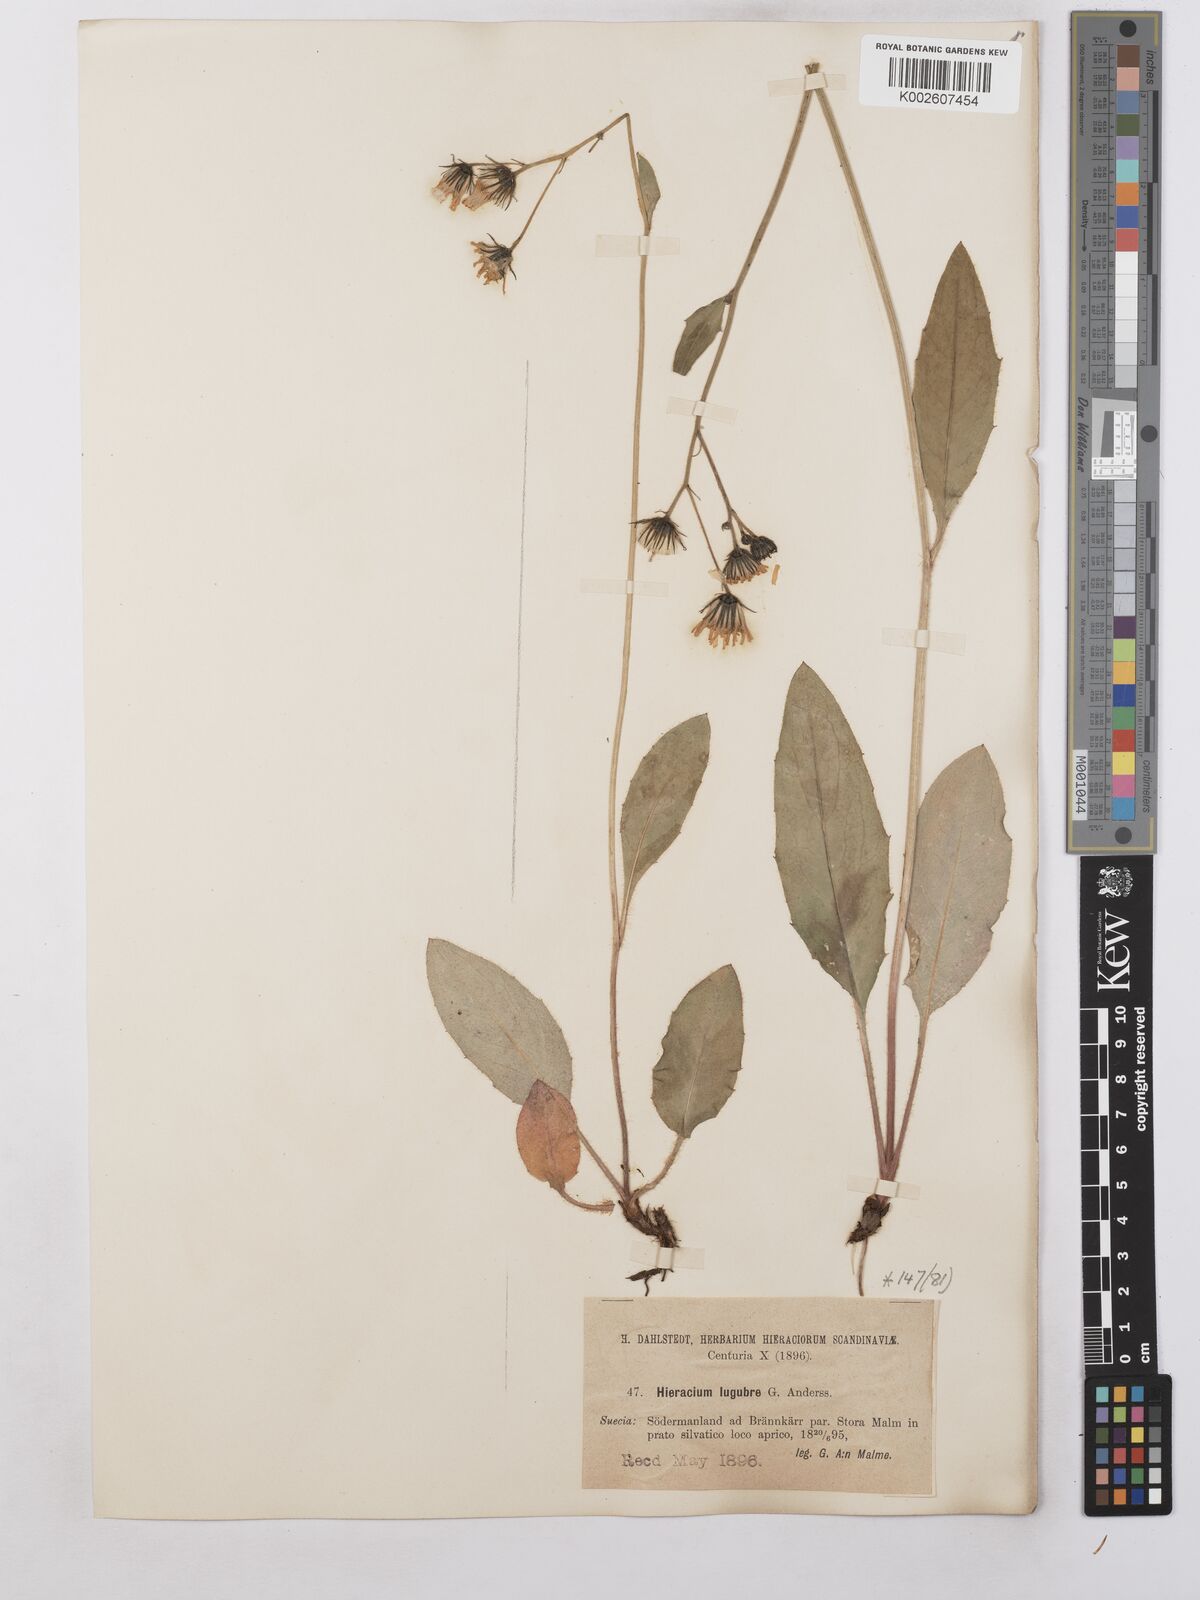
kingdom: Plantae
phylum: Tracheophyta
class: Magnoliopsida
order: Asterales
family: Asteraceae
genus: Hieracium
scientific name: Hieracium caesium
